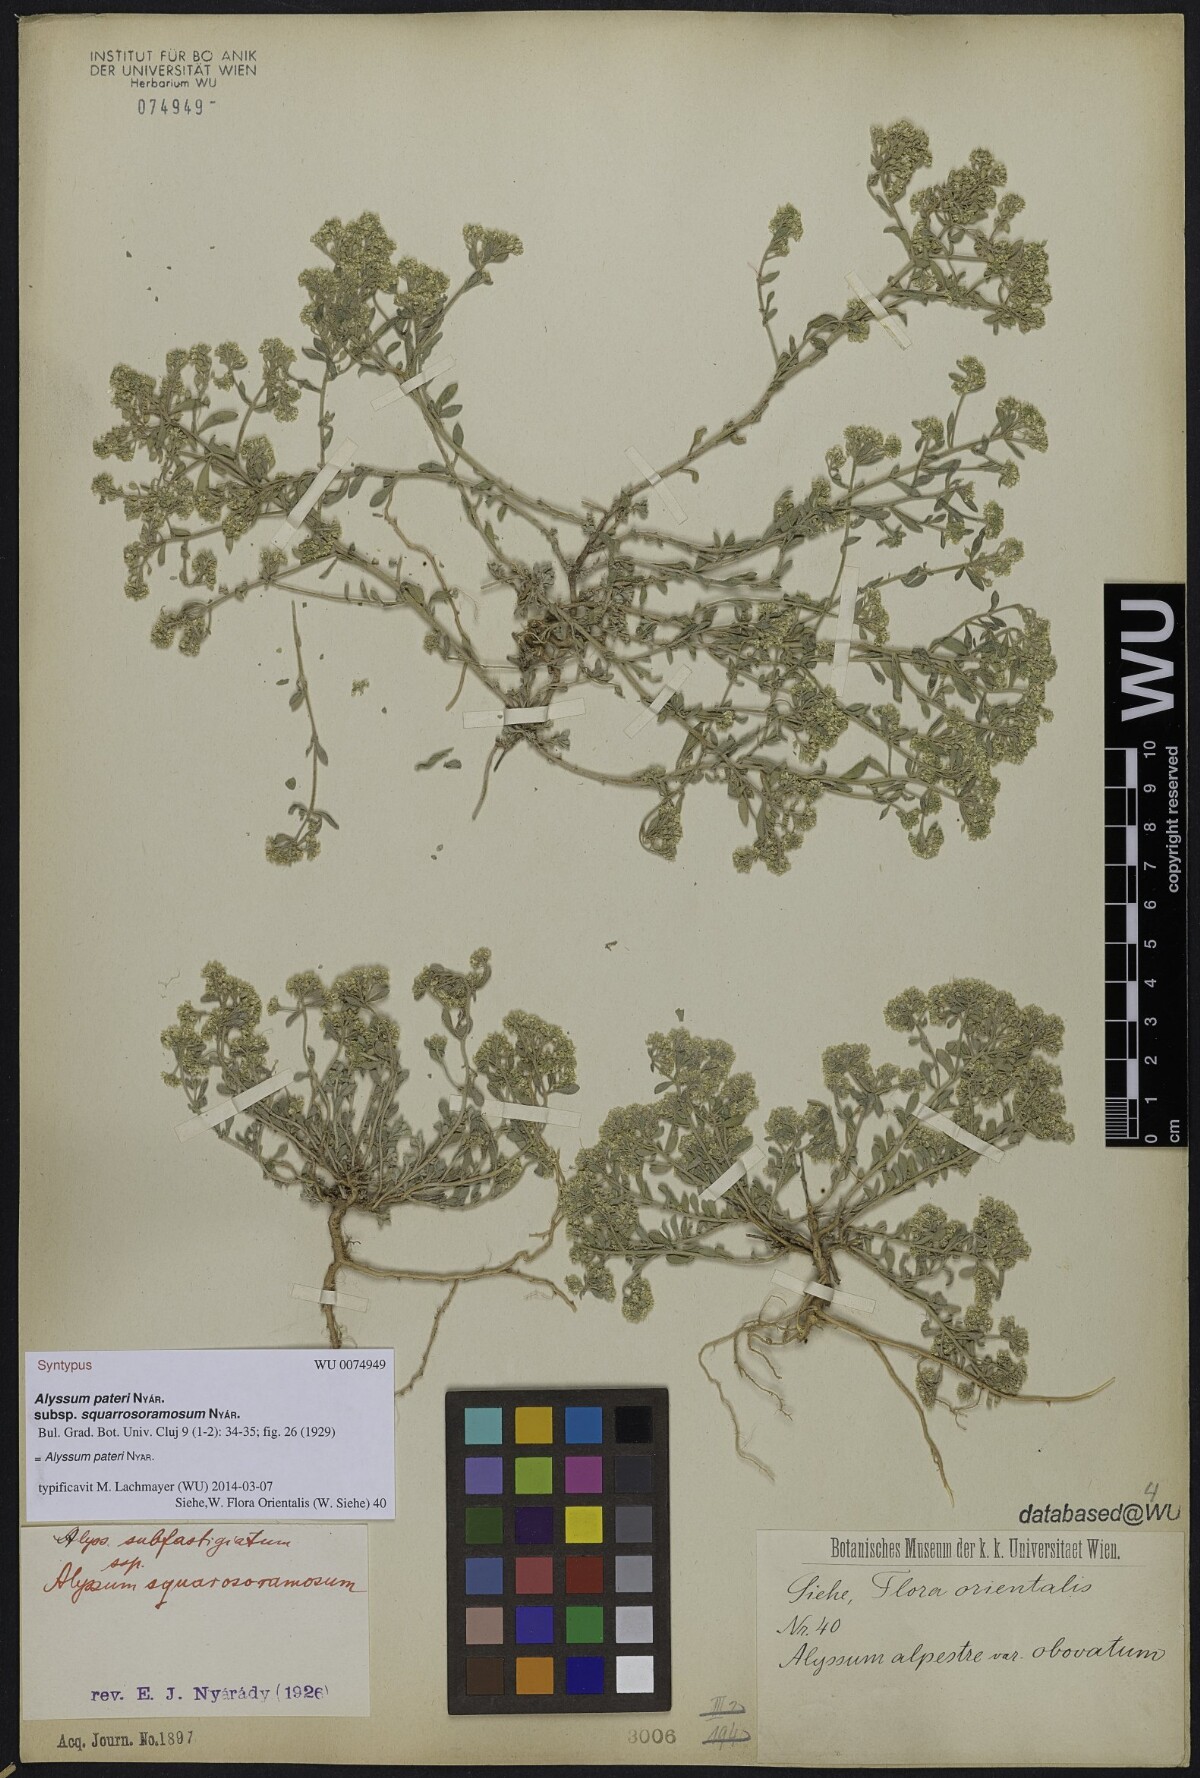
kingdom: Plantae
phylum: Tracheophyta
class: Magnoliopsida
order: Brassicales
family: Brassicaceae
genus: Odontarrhena
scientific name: Odontarrhena pateri
